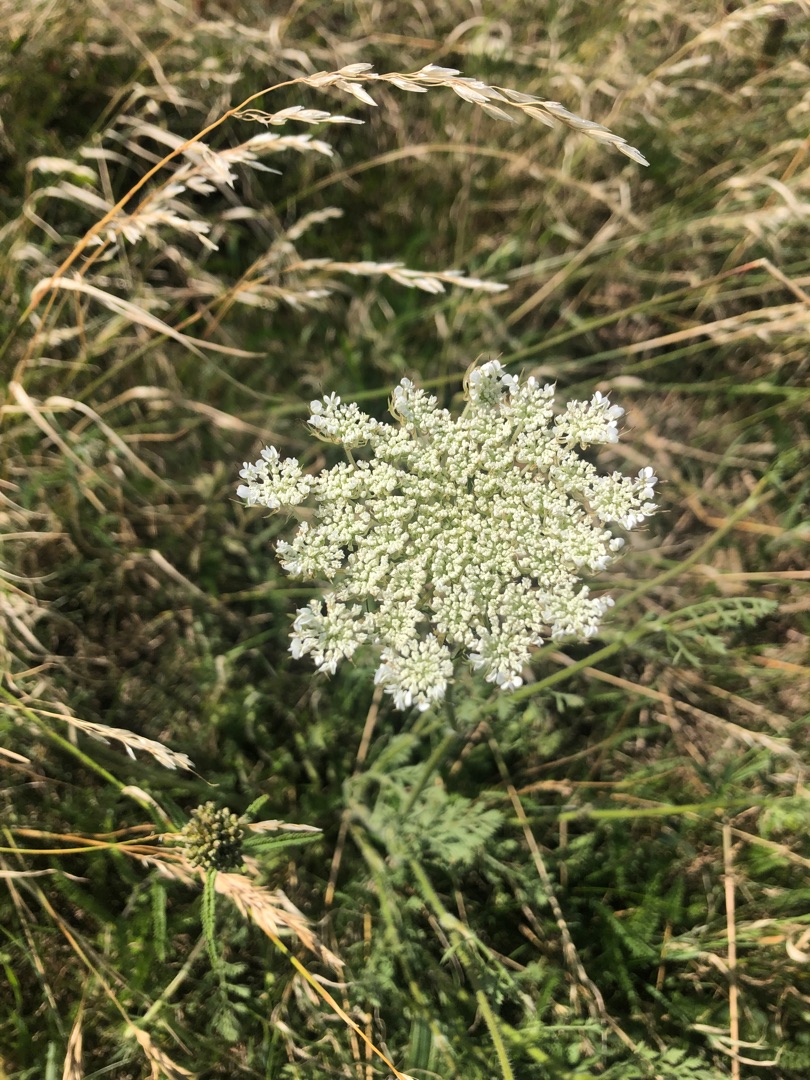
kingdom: Plantae
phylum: Tracheophyta
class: Magnoliopsida
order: Apiales
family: Apiaceae
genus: Daucus
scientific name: Daucus carota
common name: Vild gulerod
